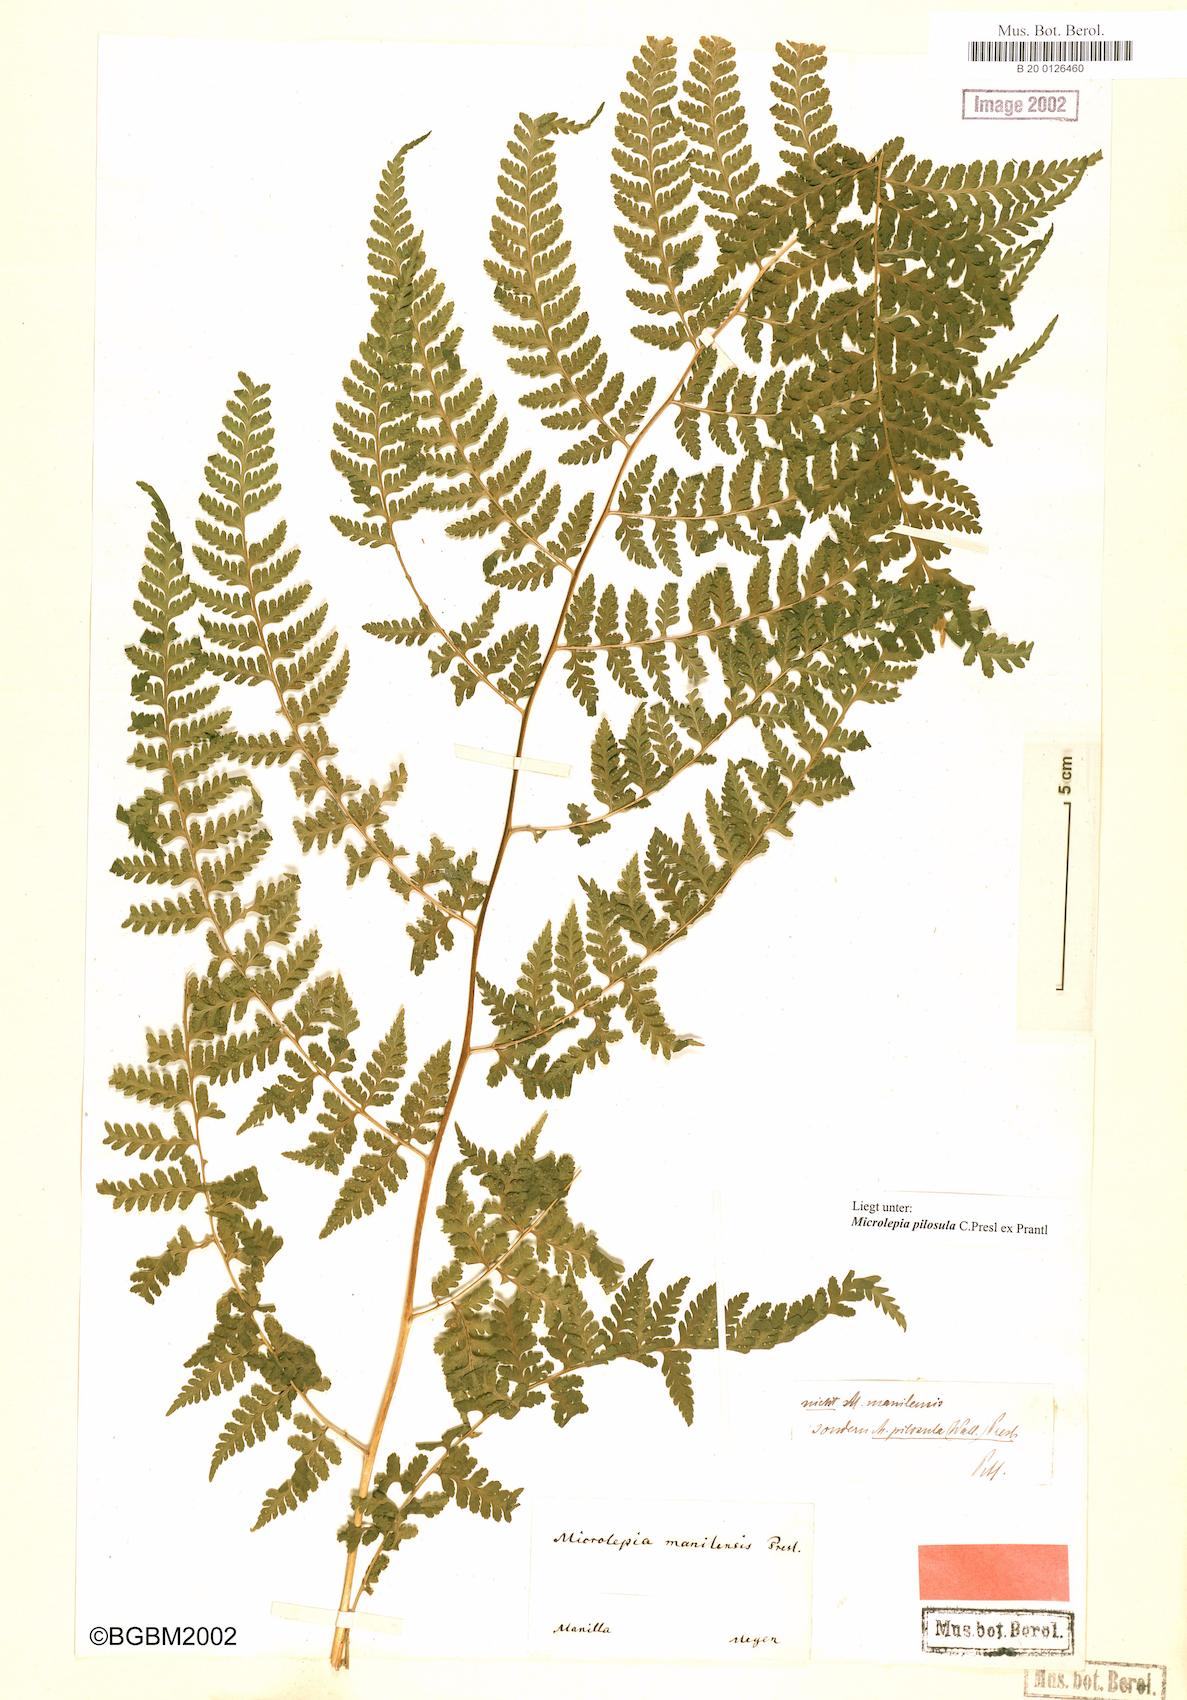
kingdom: Plantae
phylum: Tracheophyta
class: Polypodiopsida
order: Polypodiales
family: Dennstaedtiaceae
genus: Microlepia
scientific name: Microlepia speluncae
